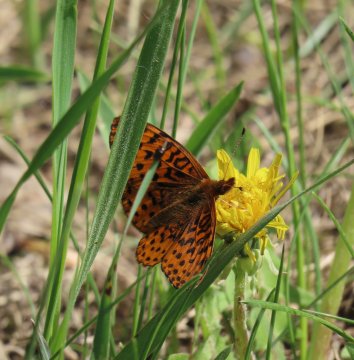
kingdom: Animalia
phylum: Arthropoda
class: Insecta
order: Lepidoptera
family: Nymphalidae
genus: Clossiana
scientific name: Clossiana toddi
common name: Meadow Fritillary
